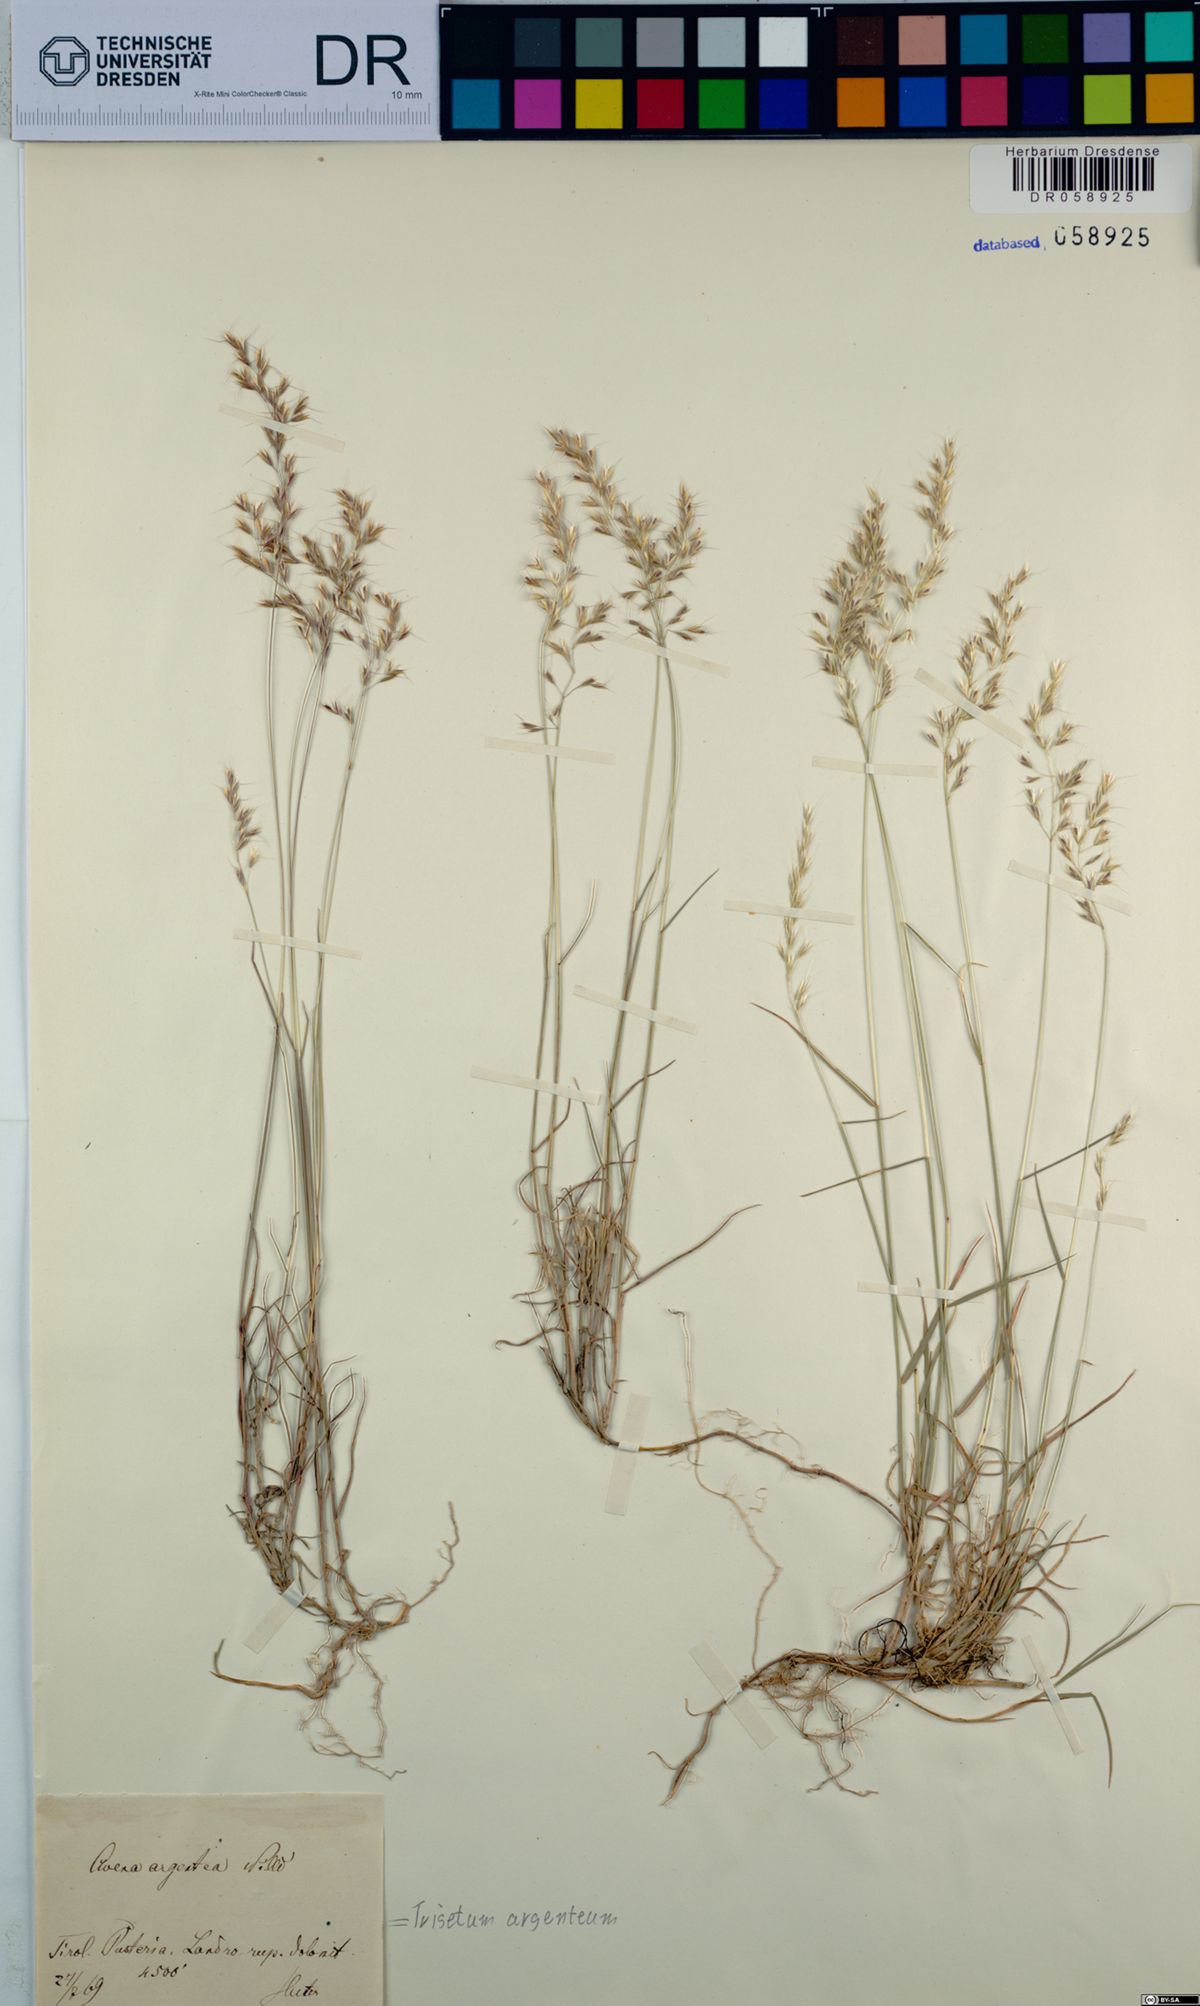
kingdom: Plantae
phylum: Tracheophyta
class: Liliopsida
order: Poales
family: Poaceae
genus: Trisetum
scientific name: Trisetum argenteum
